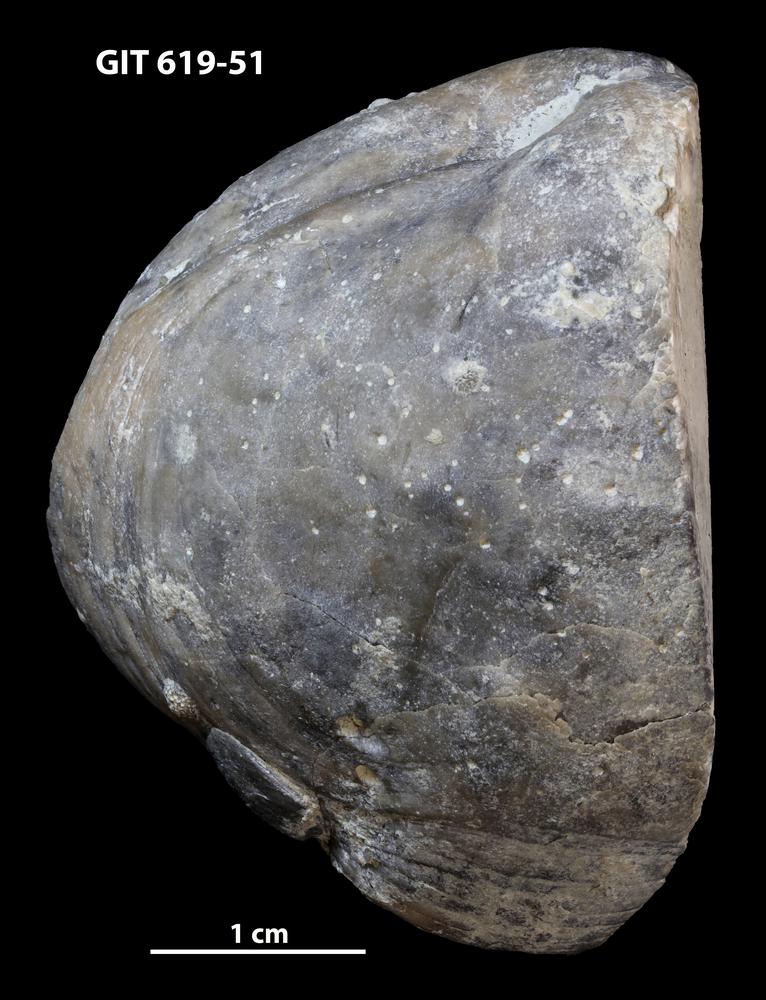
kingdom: Animalia
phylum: Brachiopoda
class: Rhynchonellata
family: Porambonitidae
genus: Porambonites
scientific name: Porambonites
